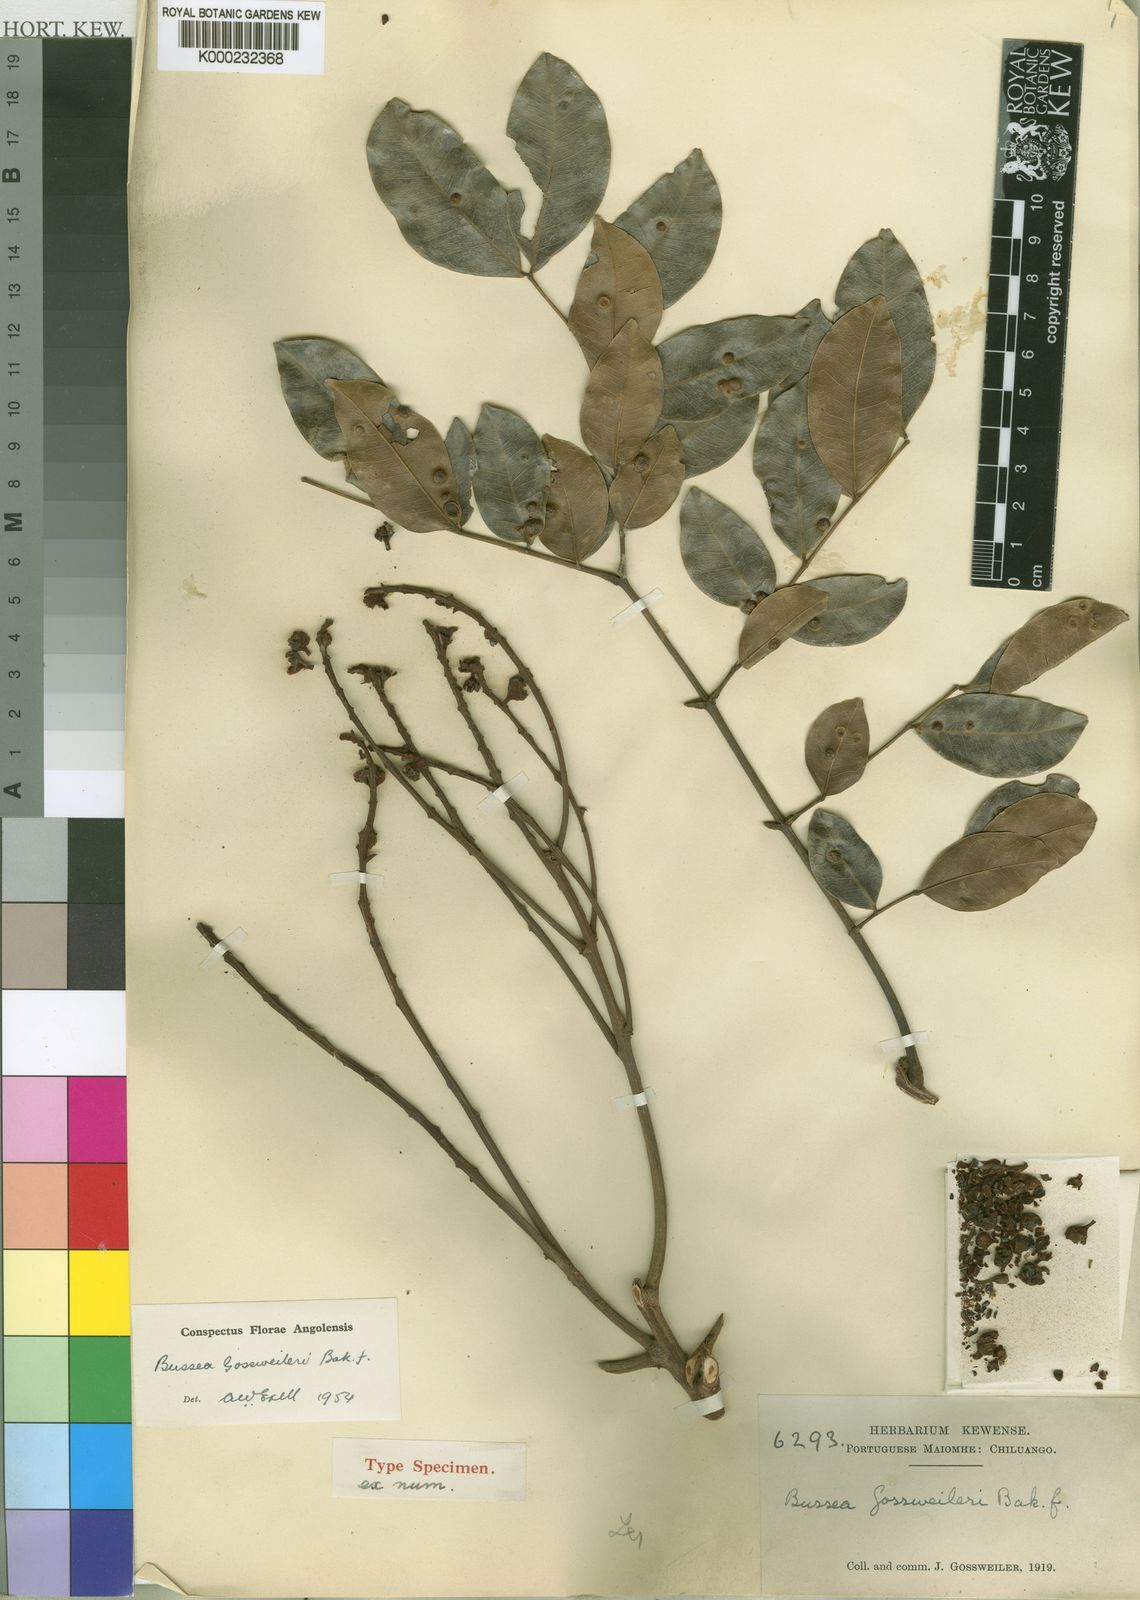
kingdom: Plantae
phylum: Tracheophyta
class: Magnoliopsida
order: Fabales
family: Fabaceae
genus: Bussea
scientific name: Bussea gossweileri
